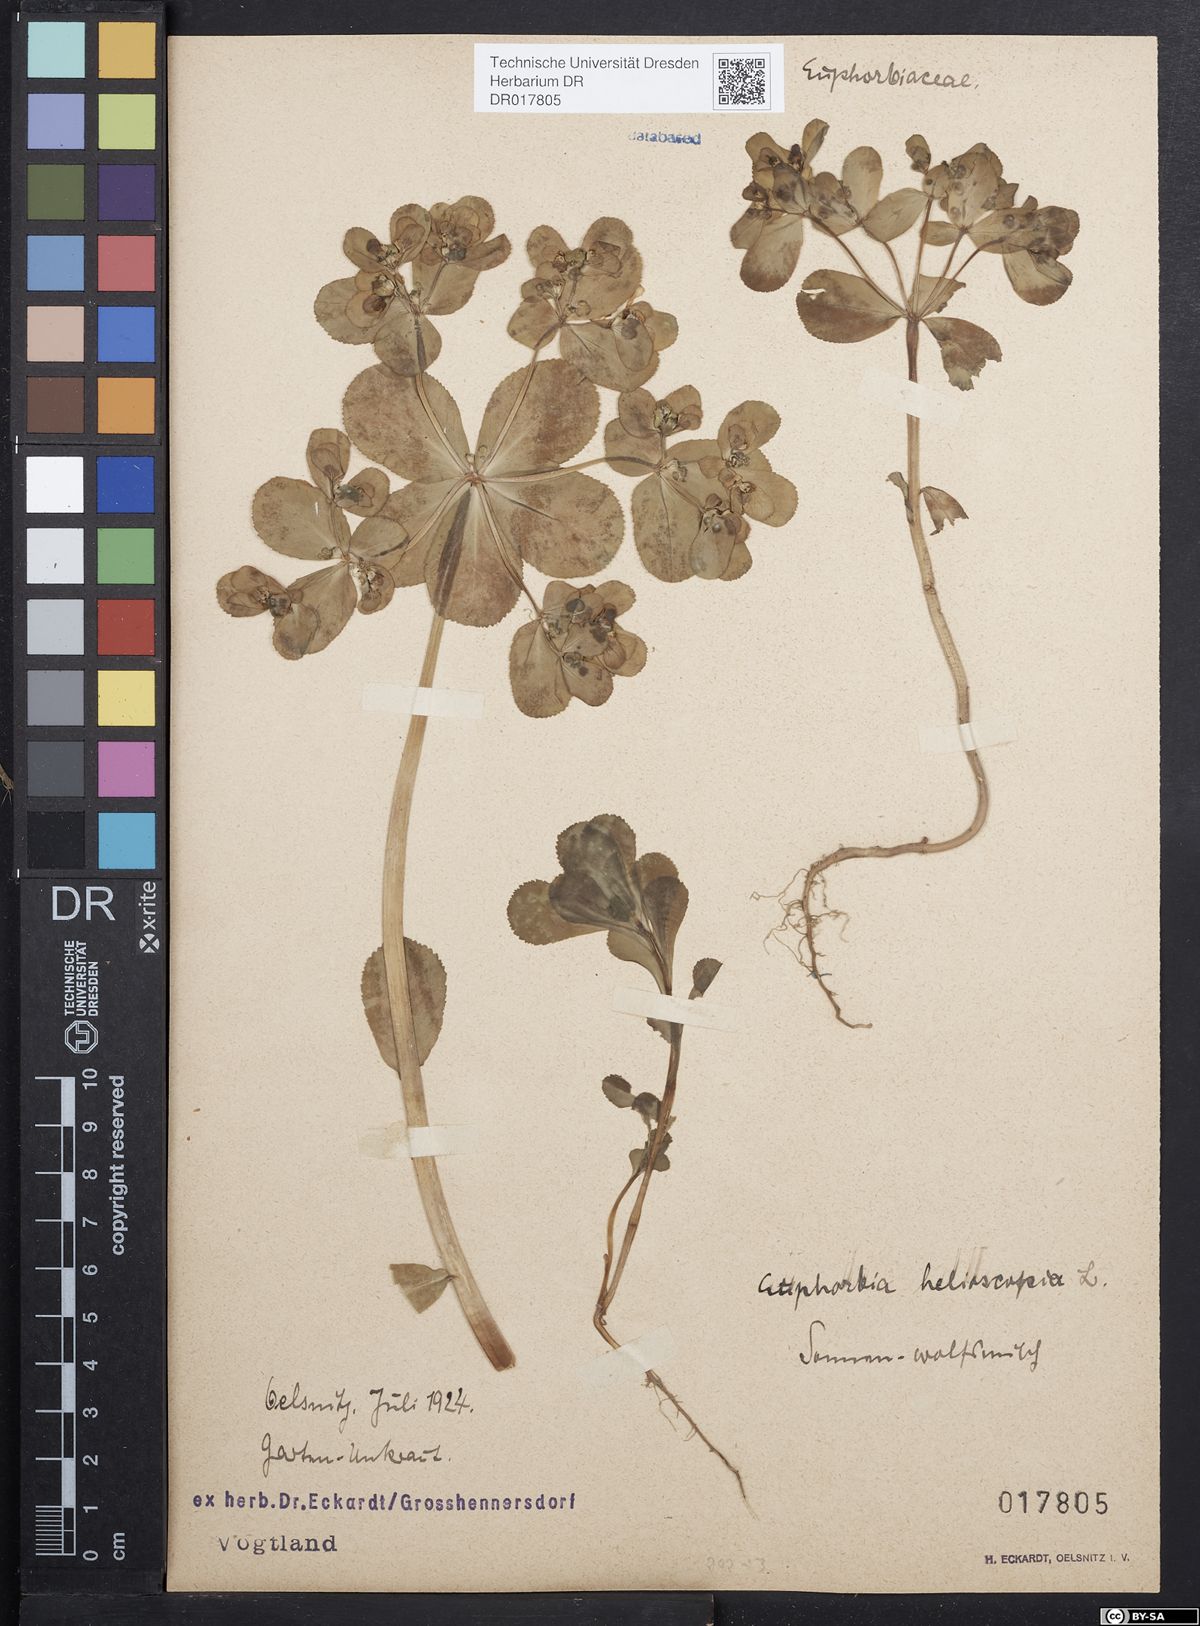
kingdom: Plantae
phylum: Tracheophyta
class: Magnoliopsida
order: Malpighiales
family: Euphorbiaceae
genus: Euphorbia
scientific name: Euphorbia helioscopia
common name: Sun spurge
